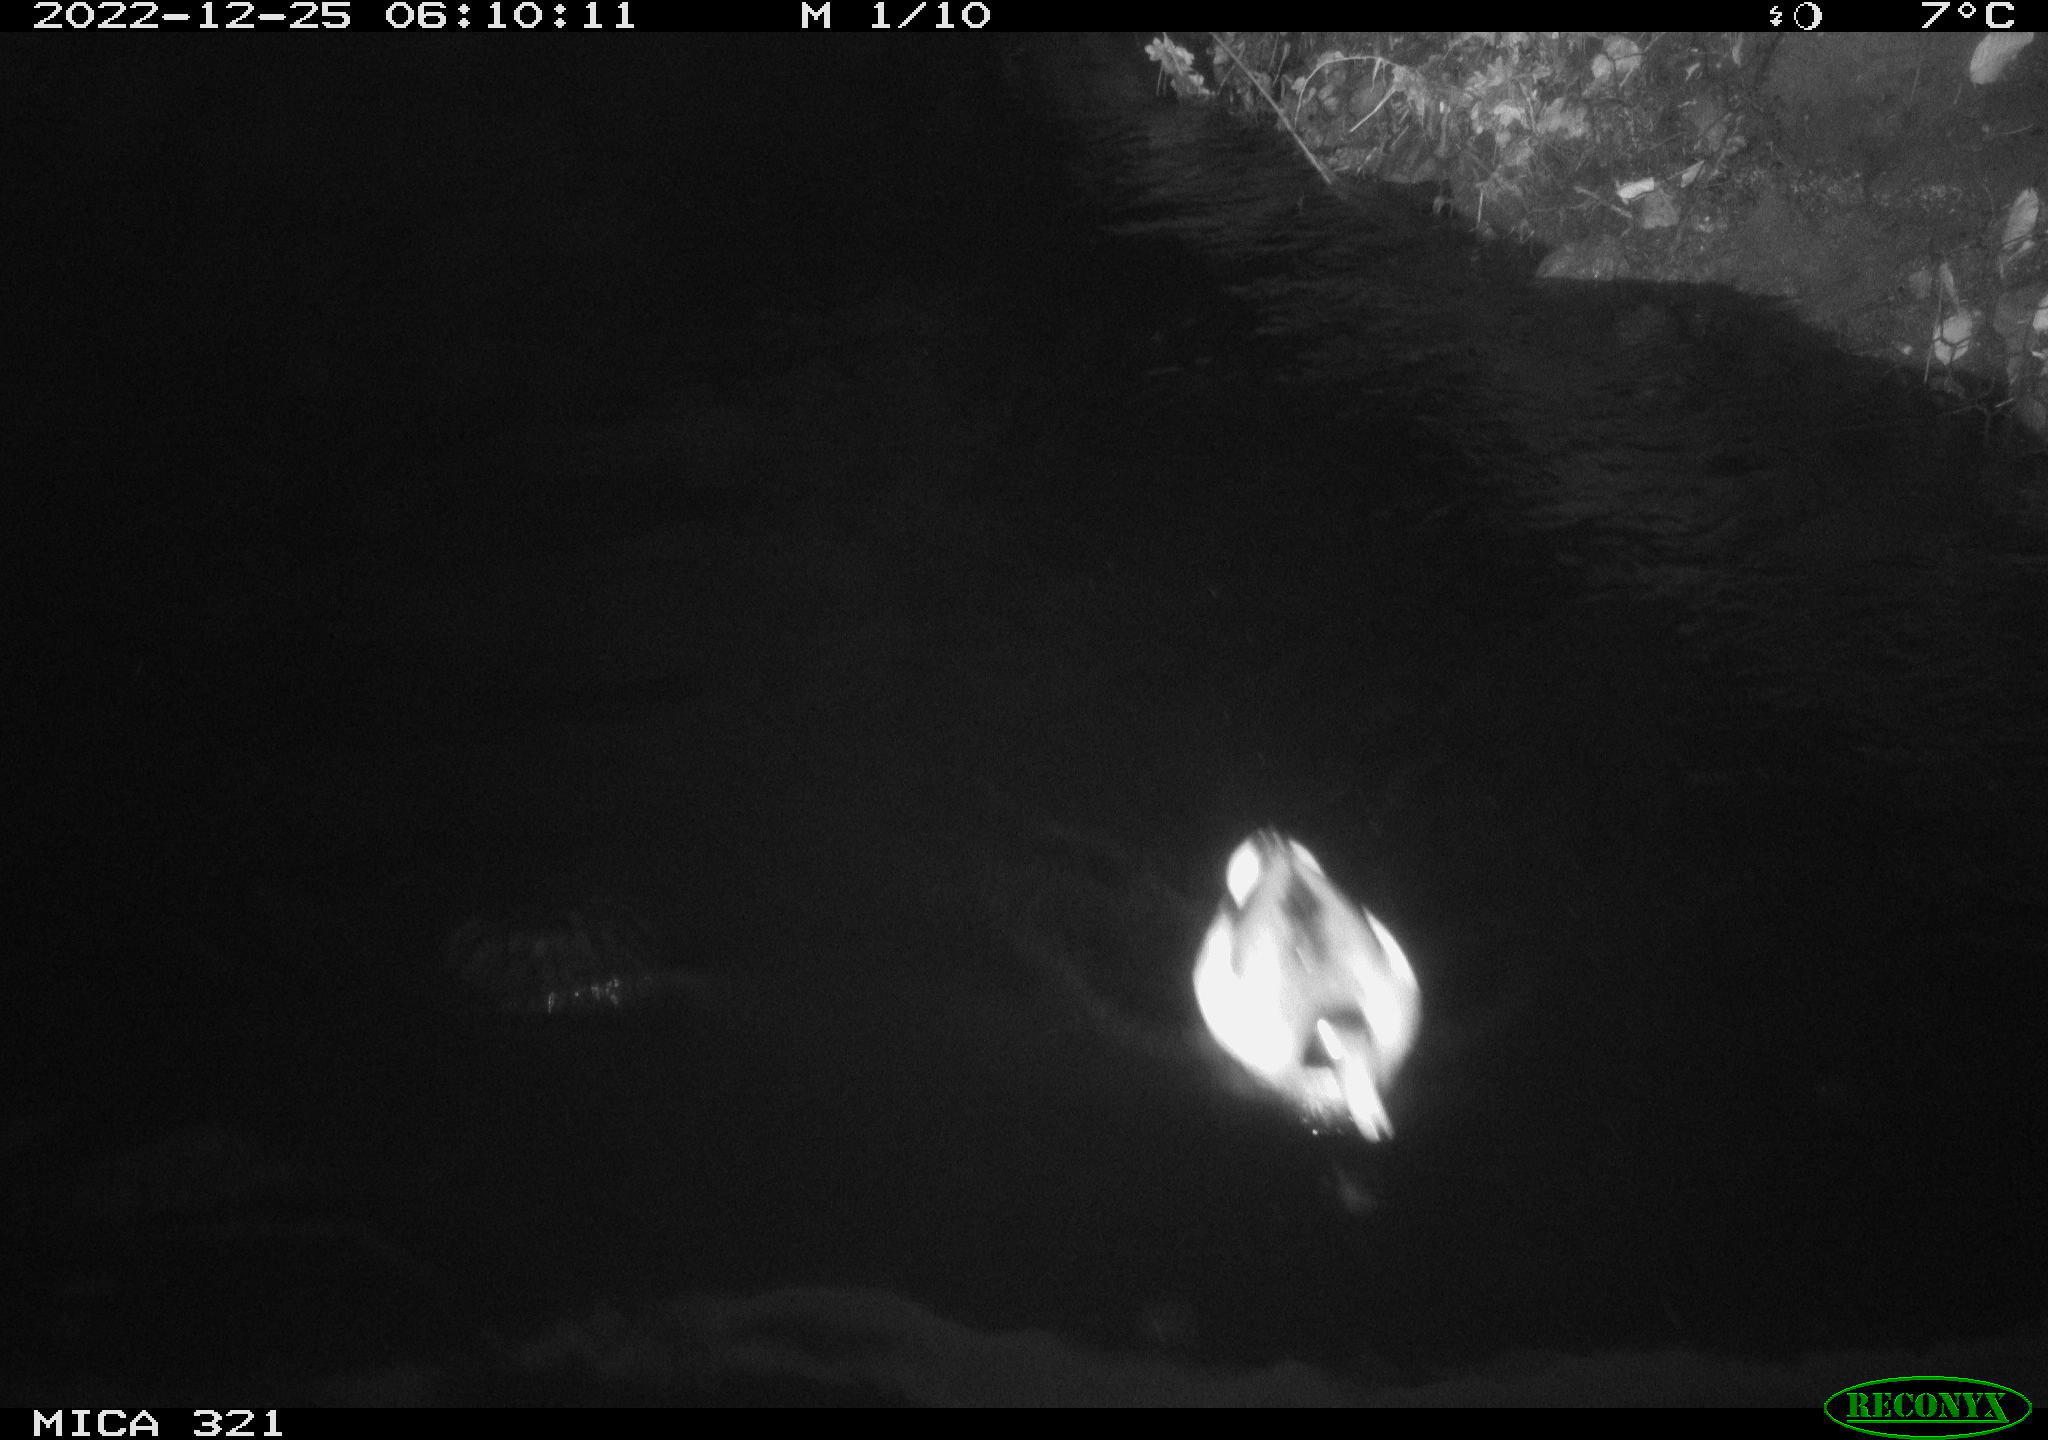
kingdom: Animalia
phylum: Chordata
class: Aves
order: Anseriformes
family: Anatidae
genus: Anas
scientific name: Anas
